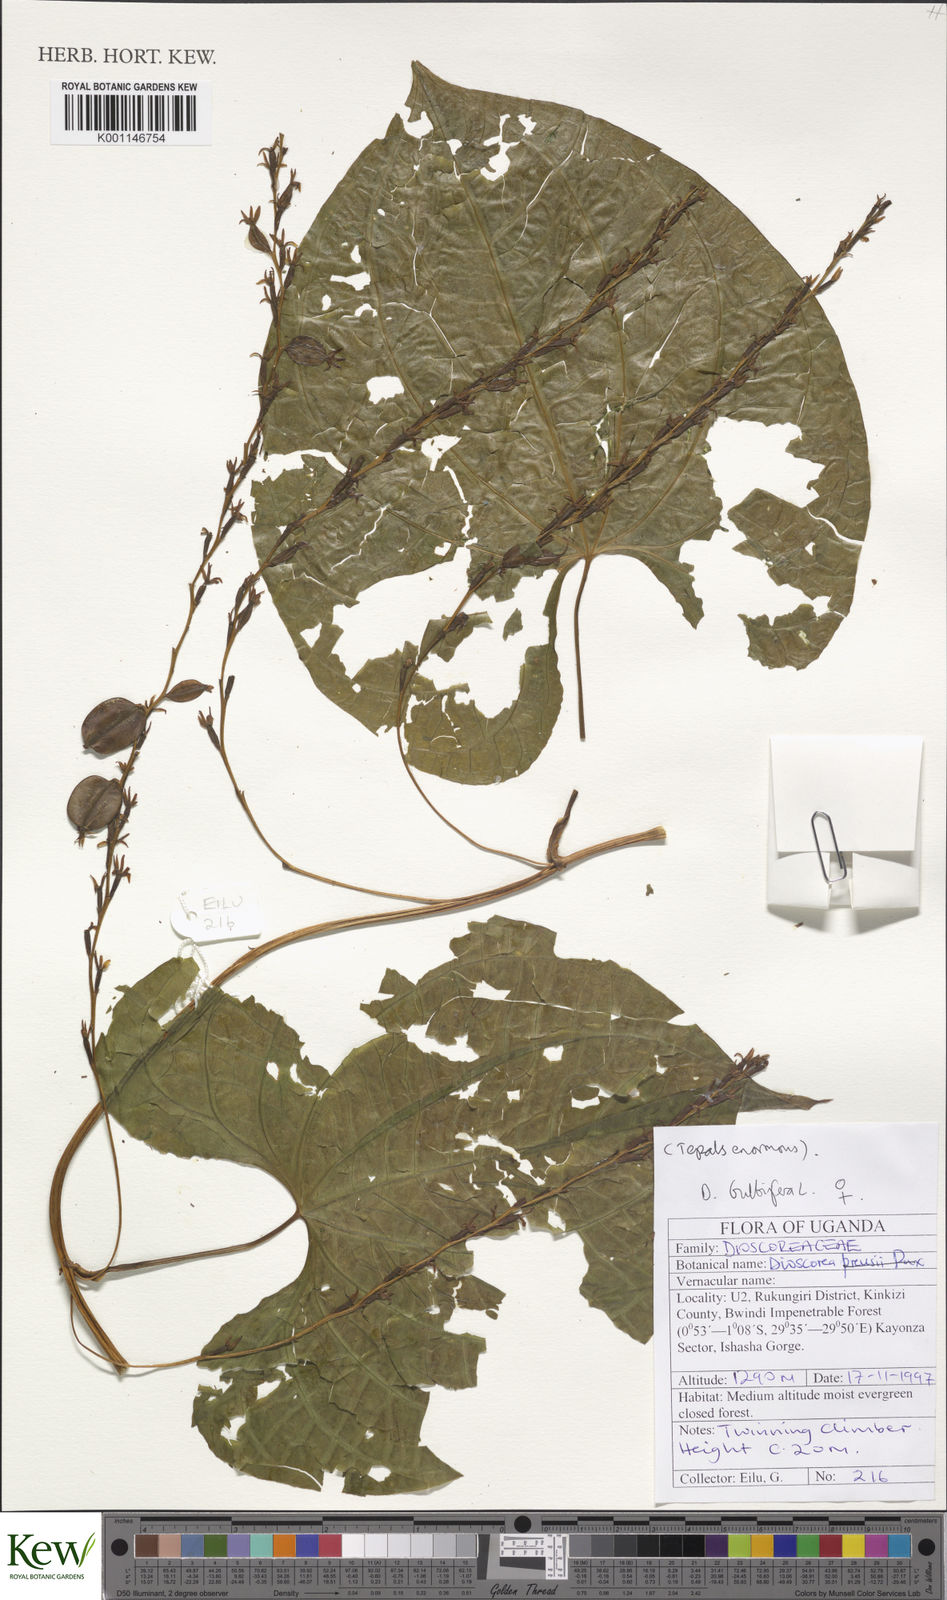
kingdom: Plantae
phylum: Tracheophyta
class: Liliopsida
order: Dioscoreales
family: Dioscoreaceae
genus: Dioscorea
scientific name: Dioscorea bulbifera
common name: Air yam
